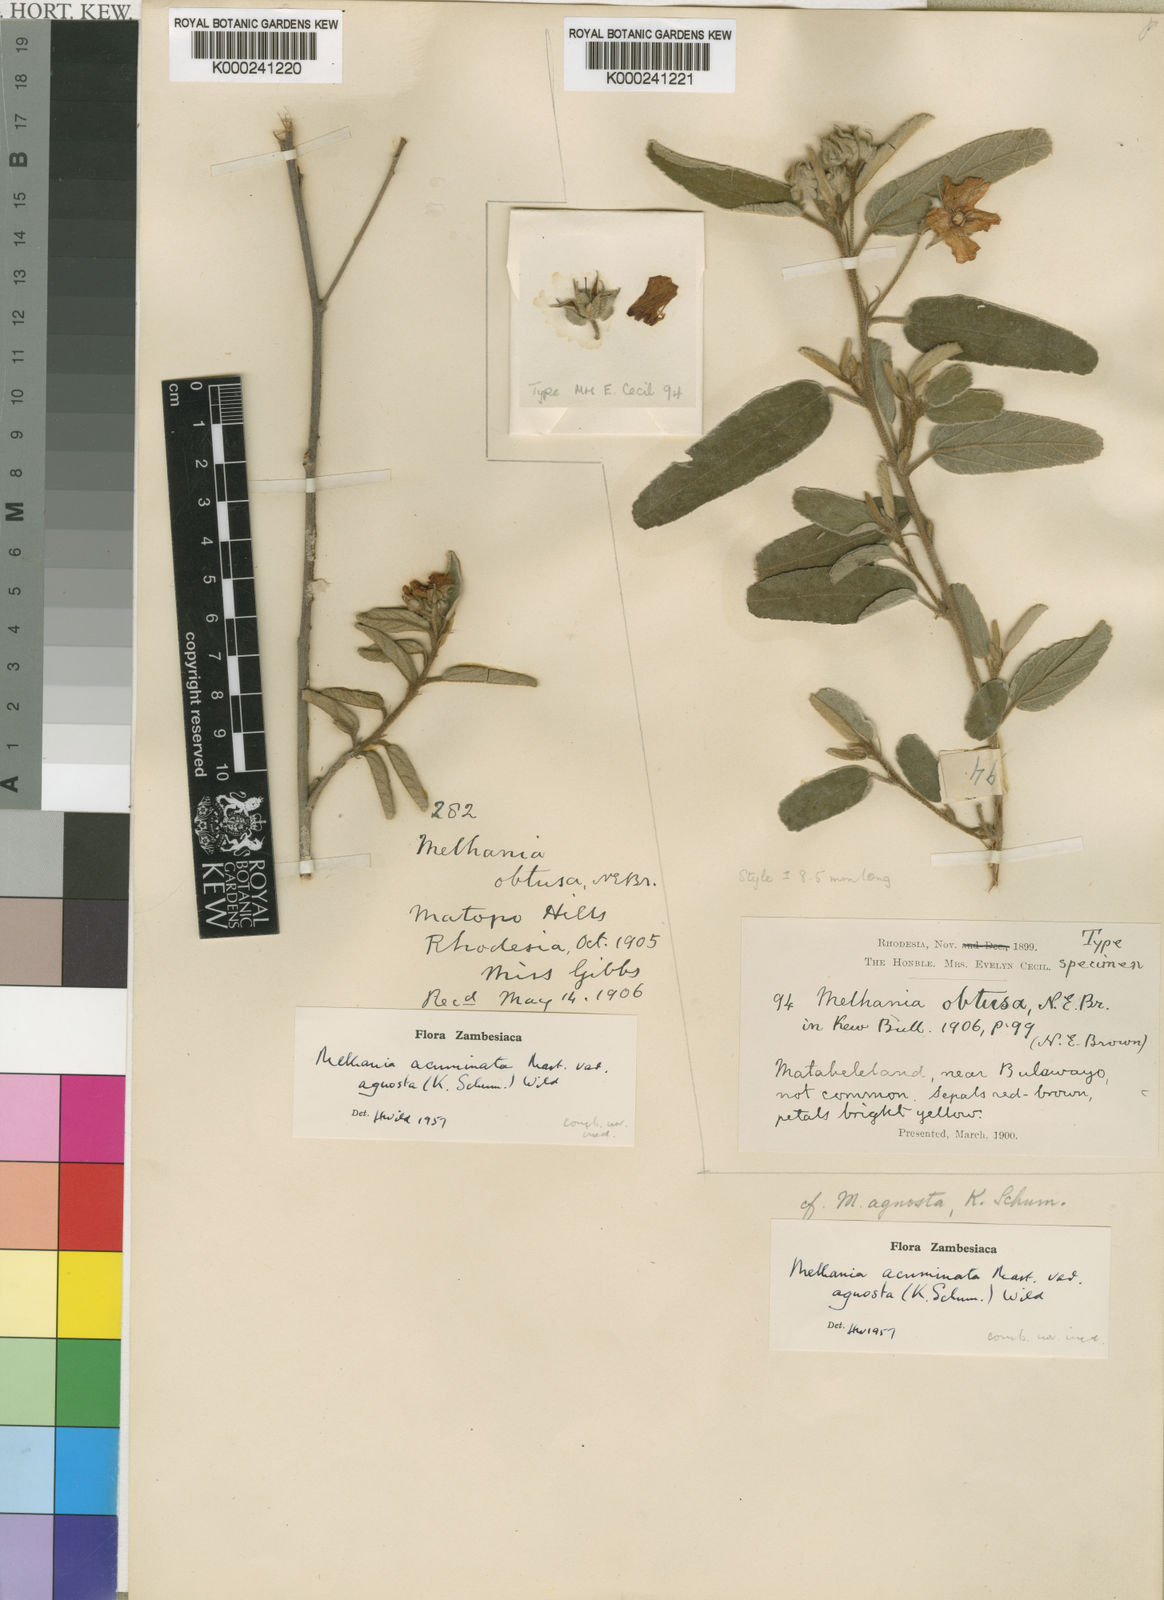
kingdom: Plantae
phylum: Tracheophyta
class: Magnoliopsida
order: Malvales
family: Malvaceae
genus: Melhania
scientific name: Melhania acuminata
